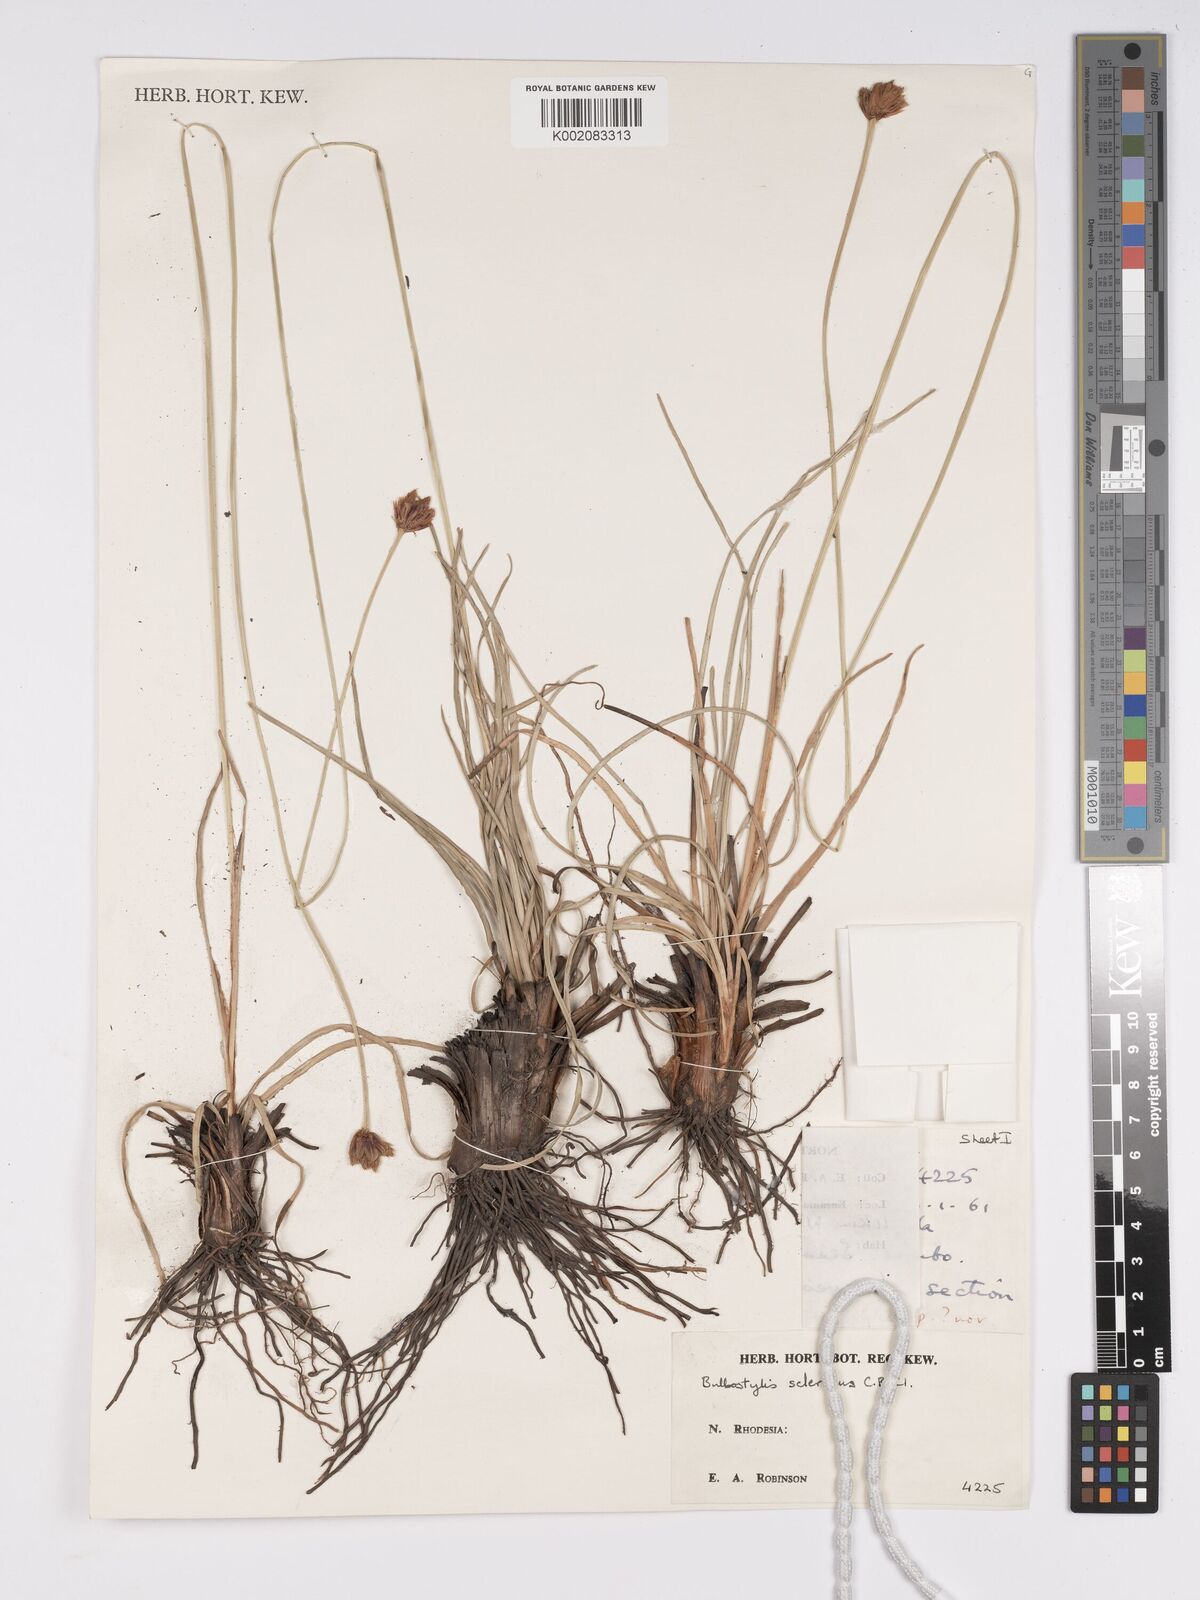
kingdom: Plantae
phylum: Tracheophyta
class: Liliopsida
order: Poales
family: Cyperaceae
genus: Bulbostylis
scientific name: Bulbostylis schoenoides
